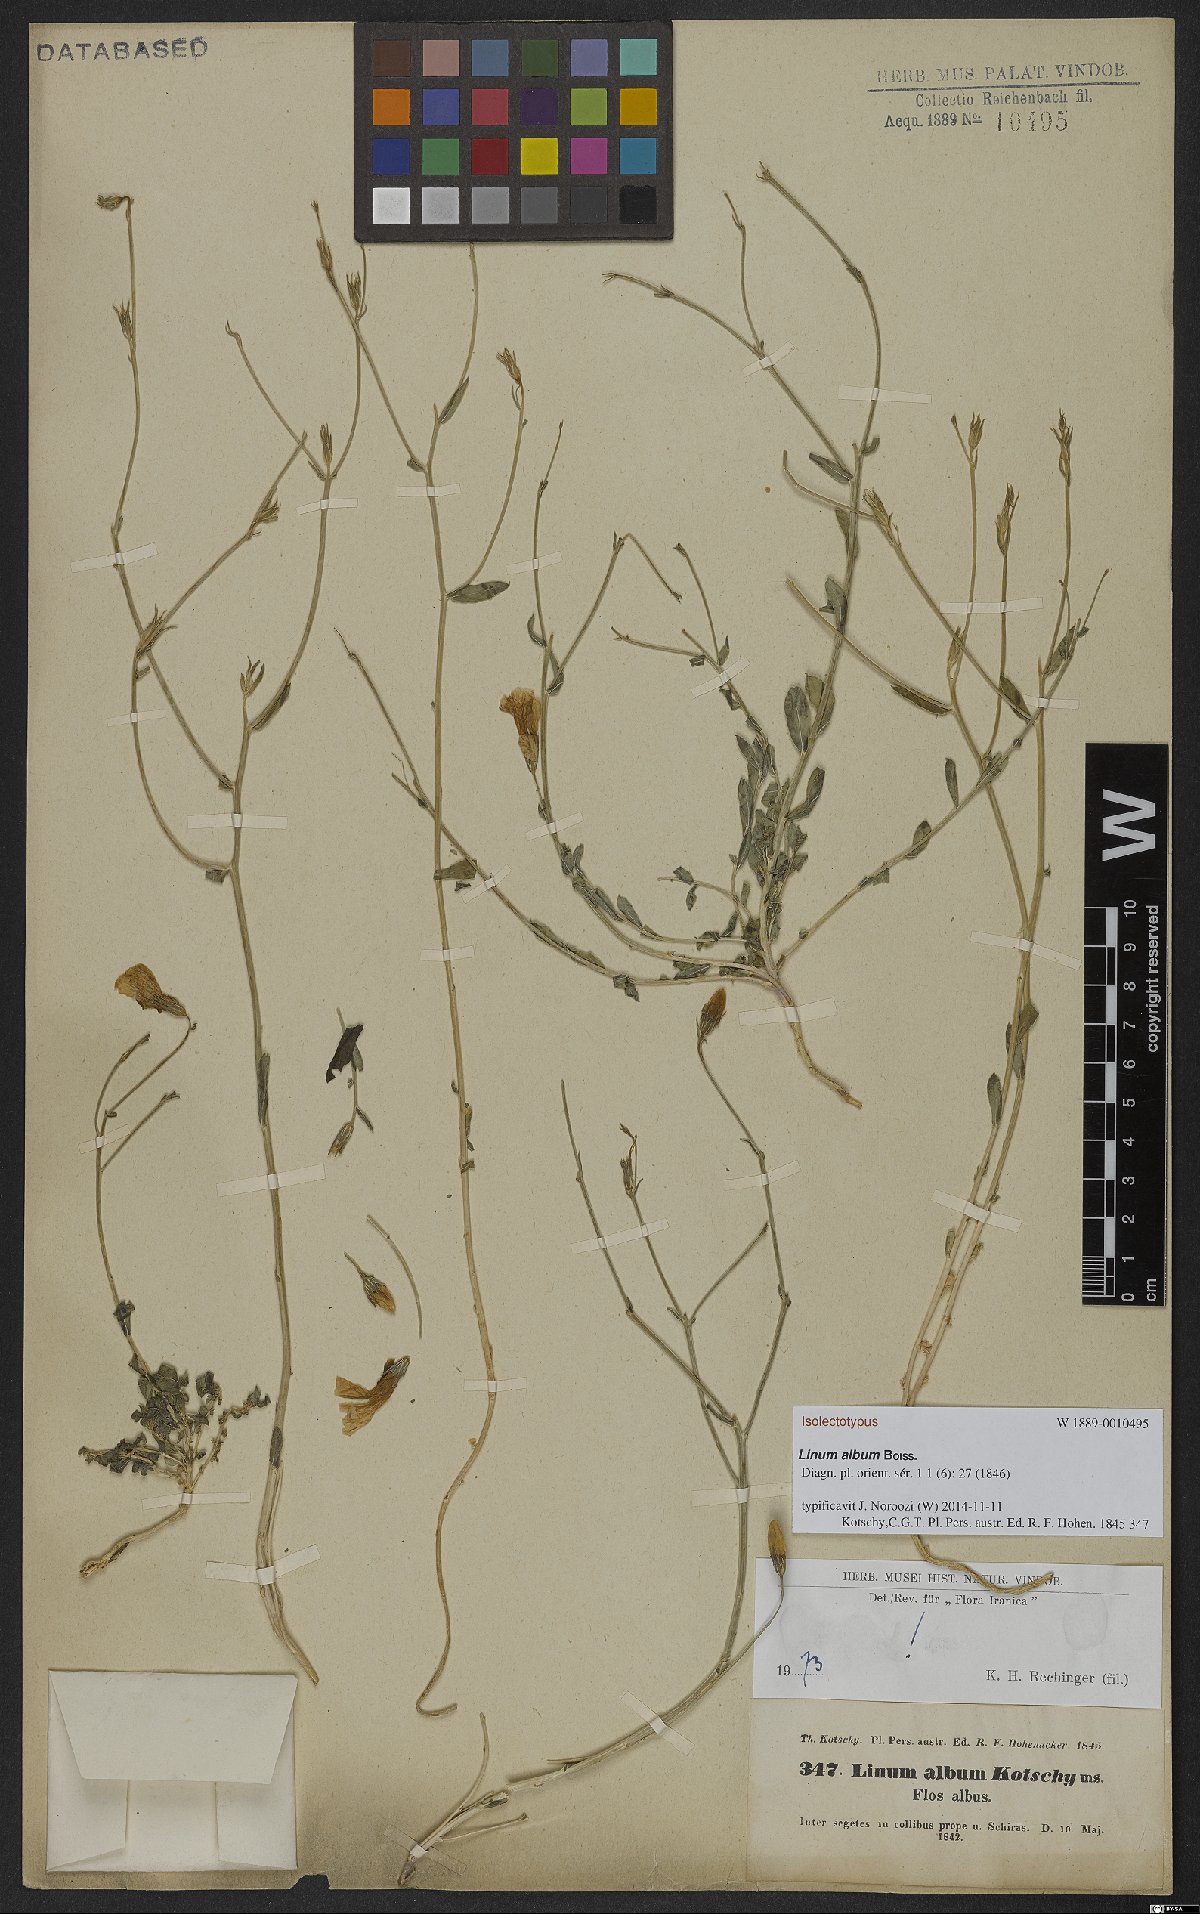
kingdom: Plantae
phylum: Tracheophyta
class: Magnoliopsida
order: Malpighiales
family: Linaceae
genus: Linum
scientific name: Linum album
